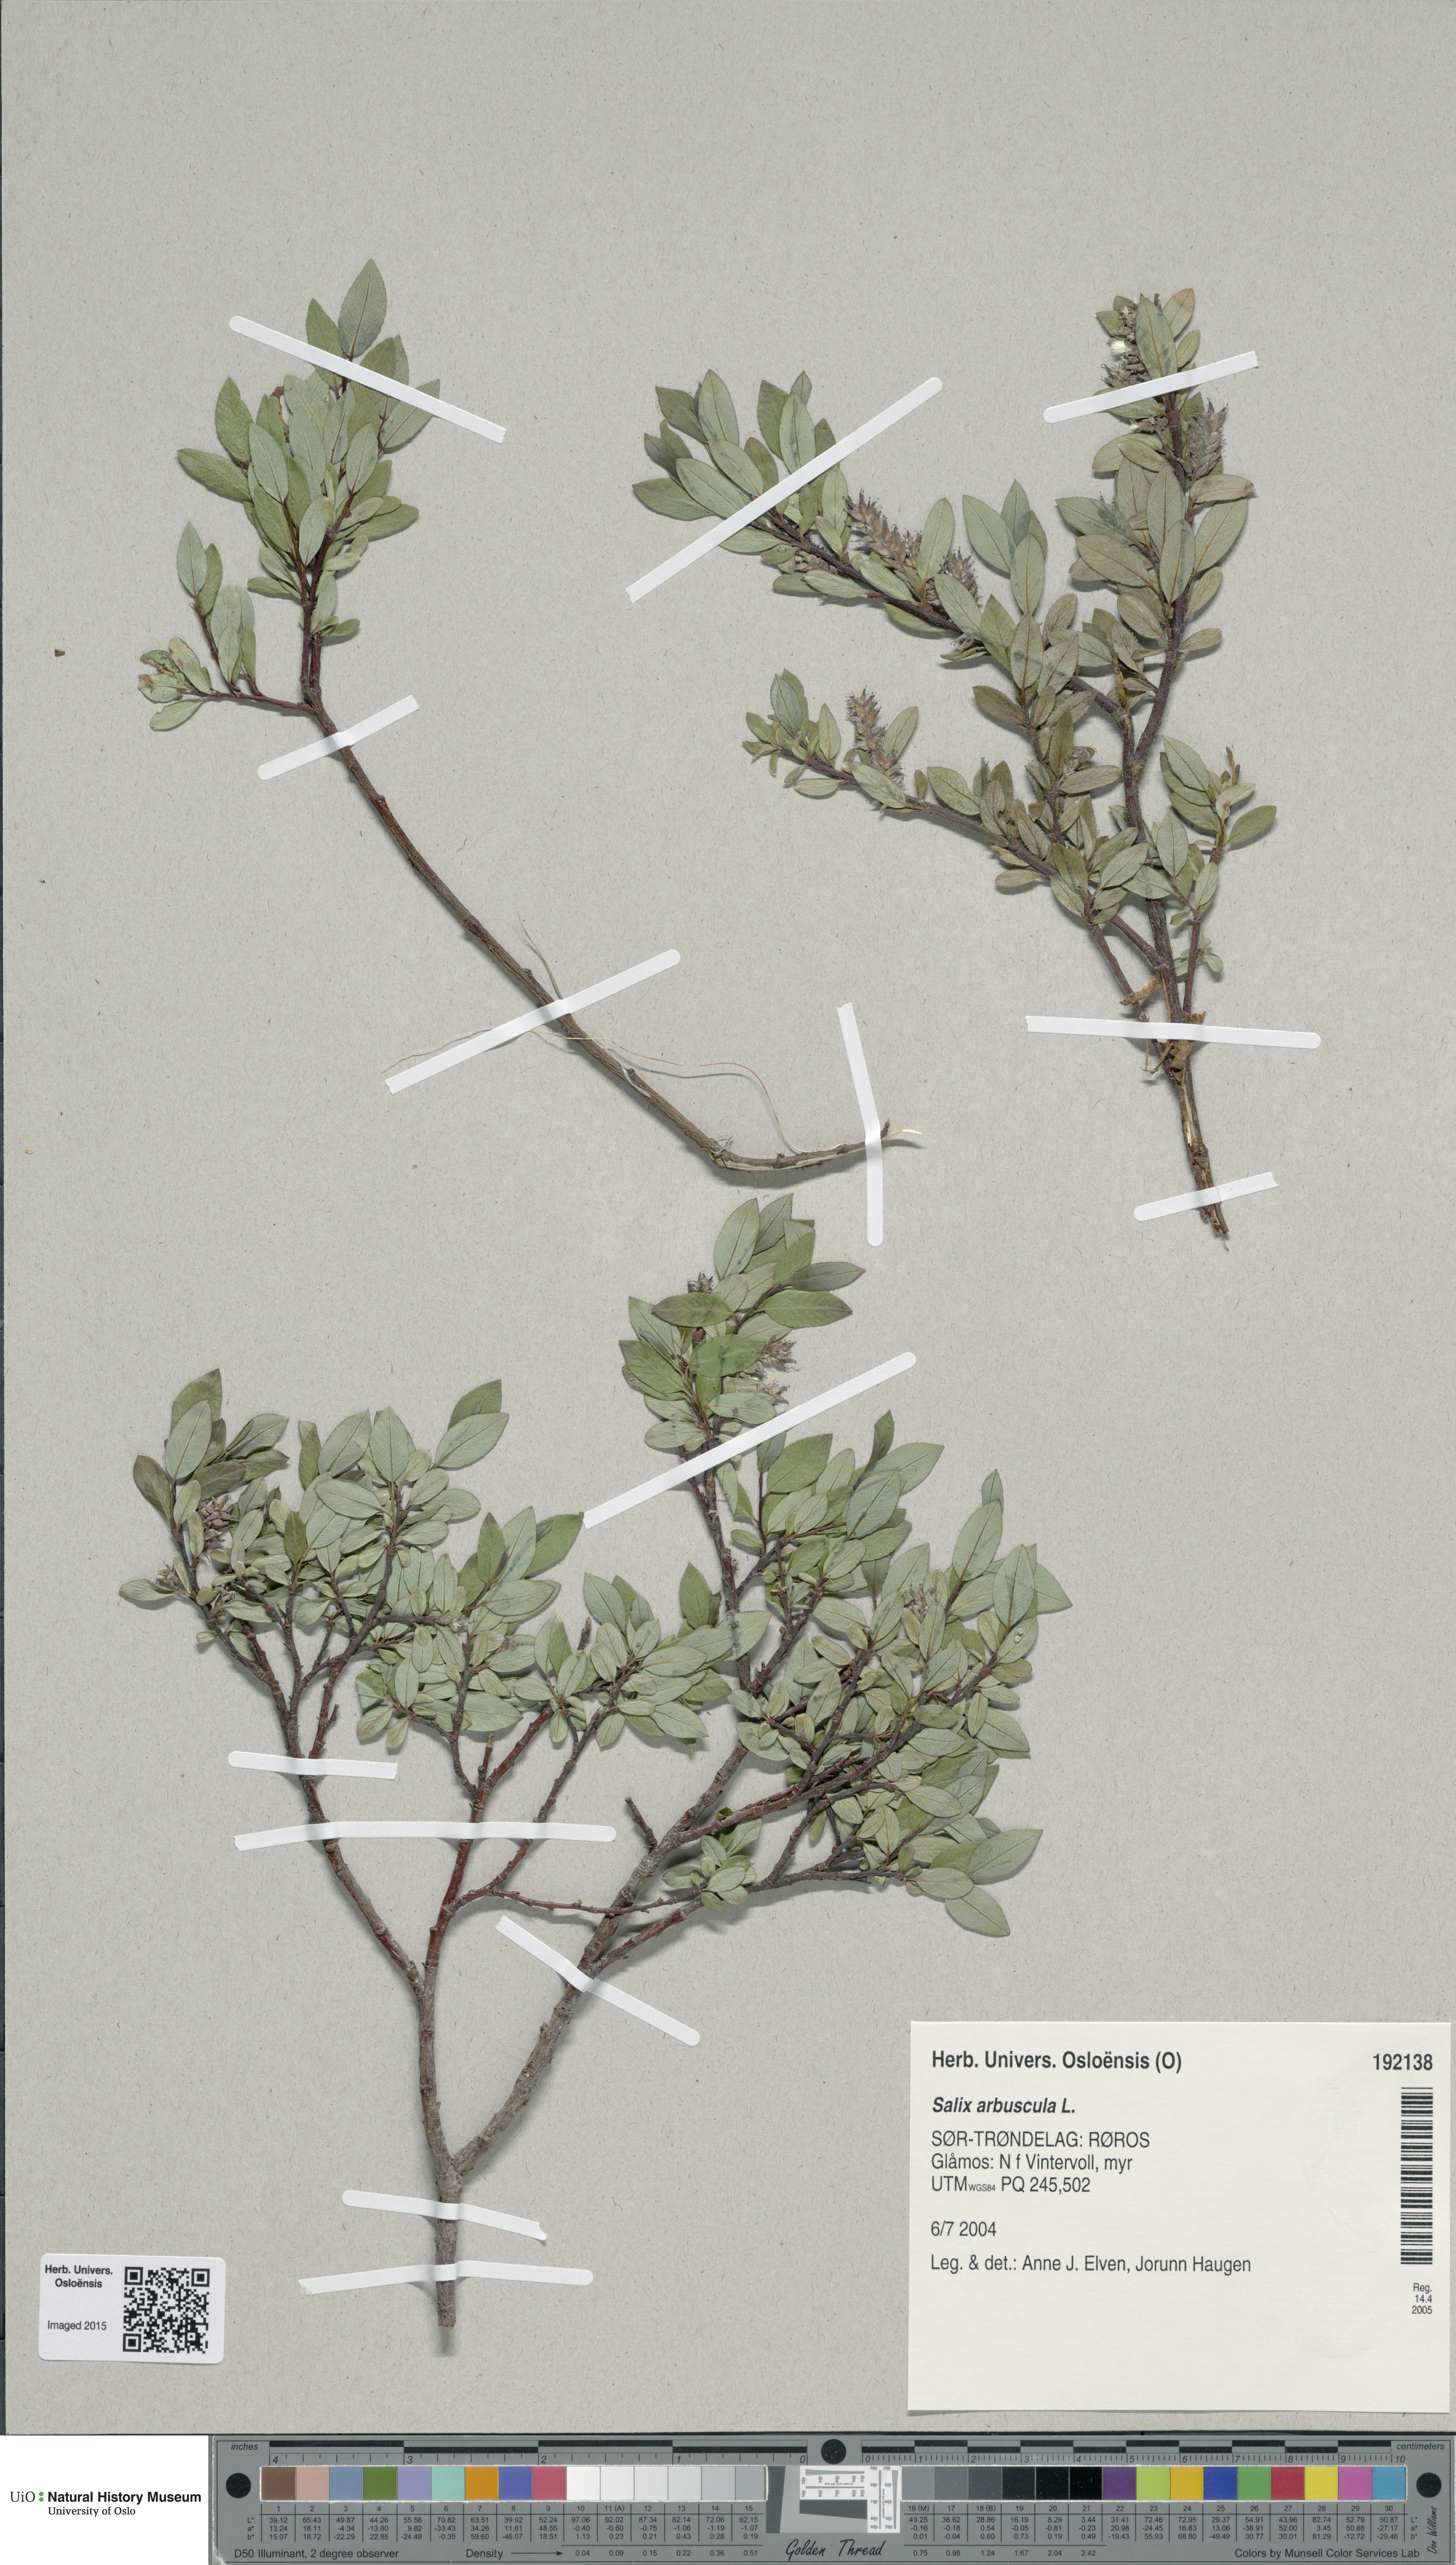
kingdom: Plantae
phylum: Tracheophyta
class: Magnoliopsida
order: Malpighiales
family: Salicaceae
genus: Salix
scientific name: Salix arbuscula
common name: Mountain willow
